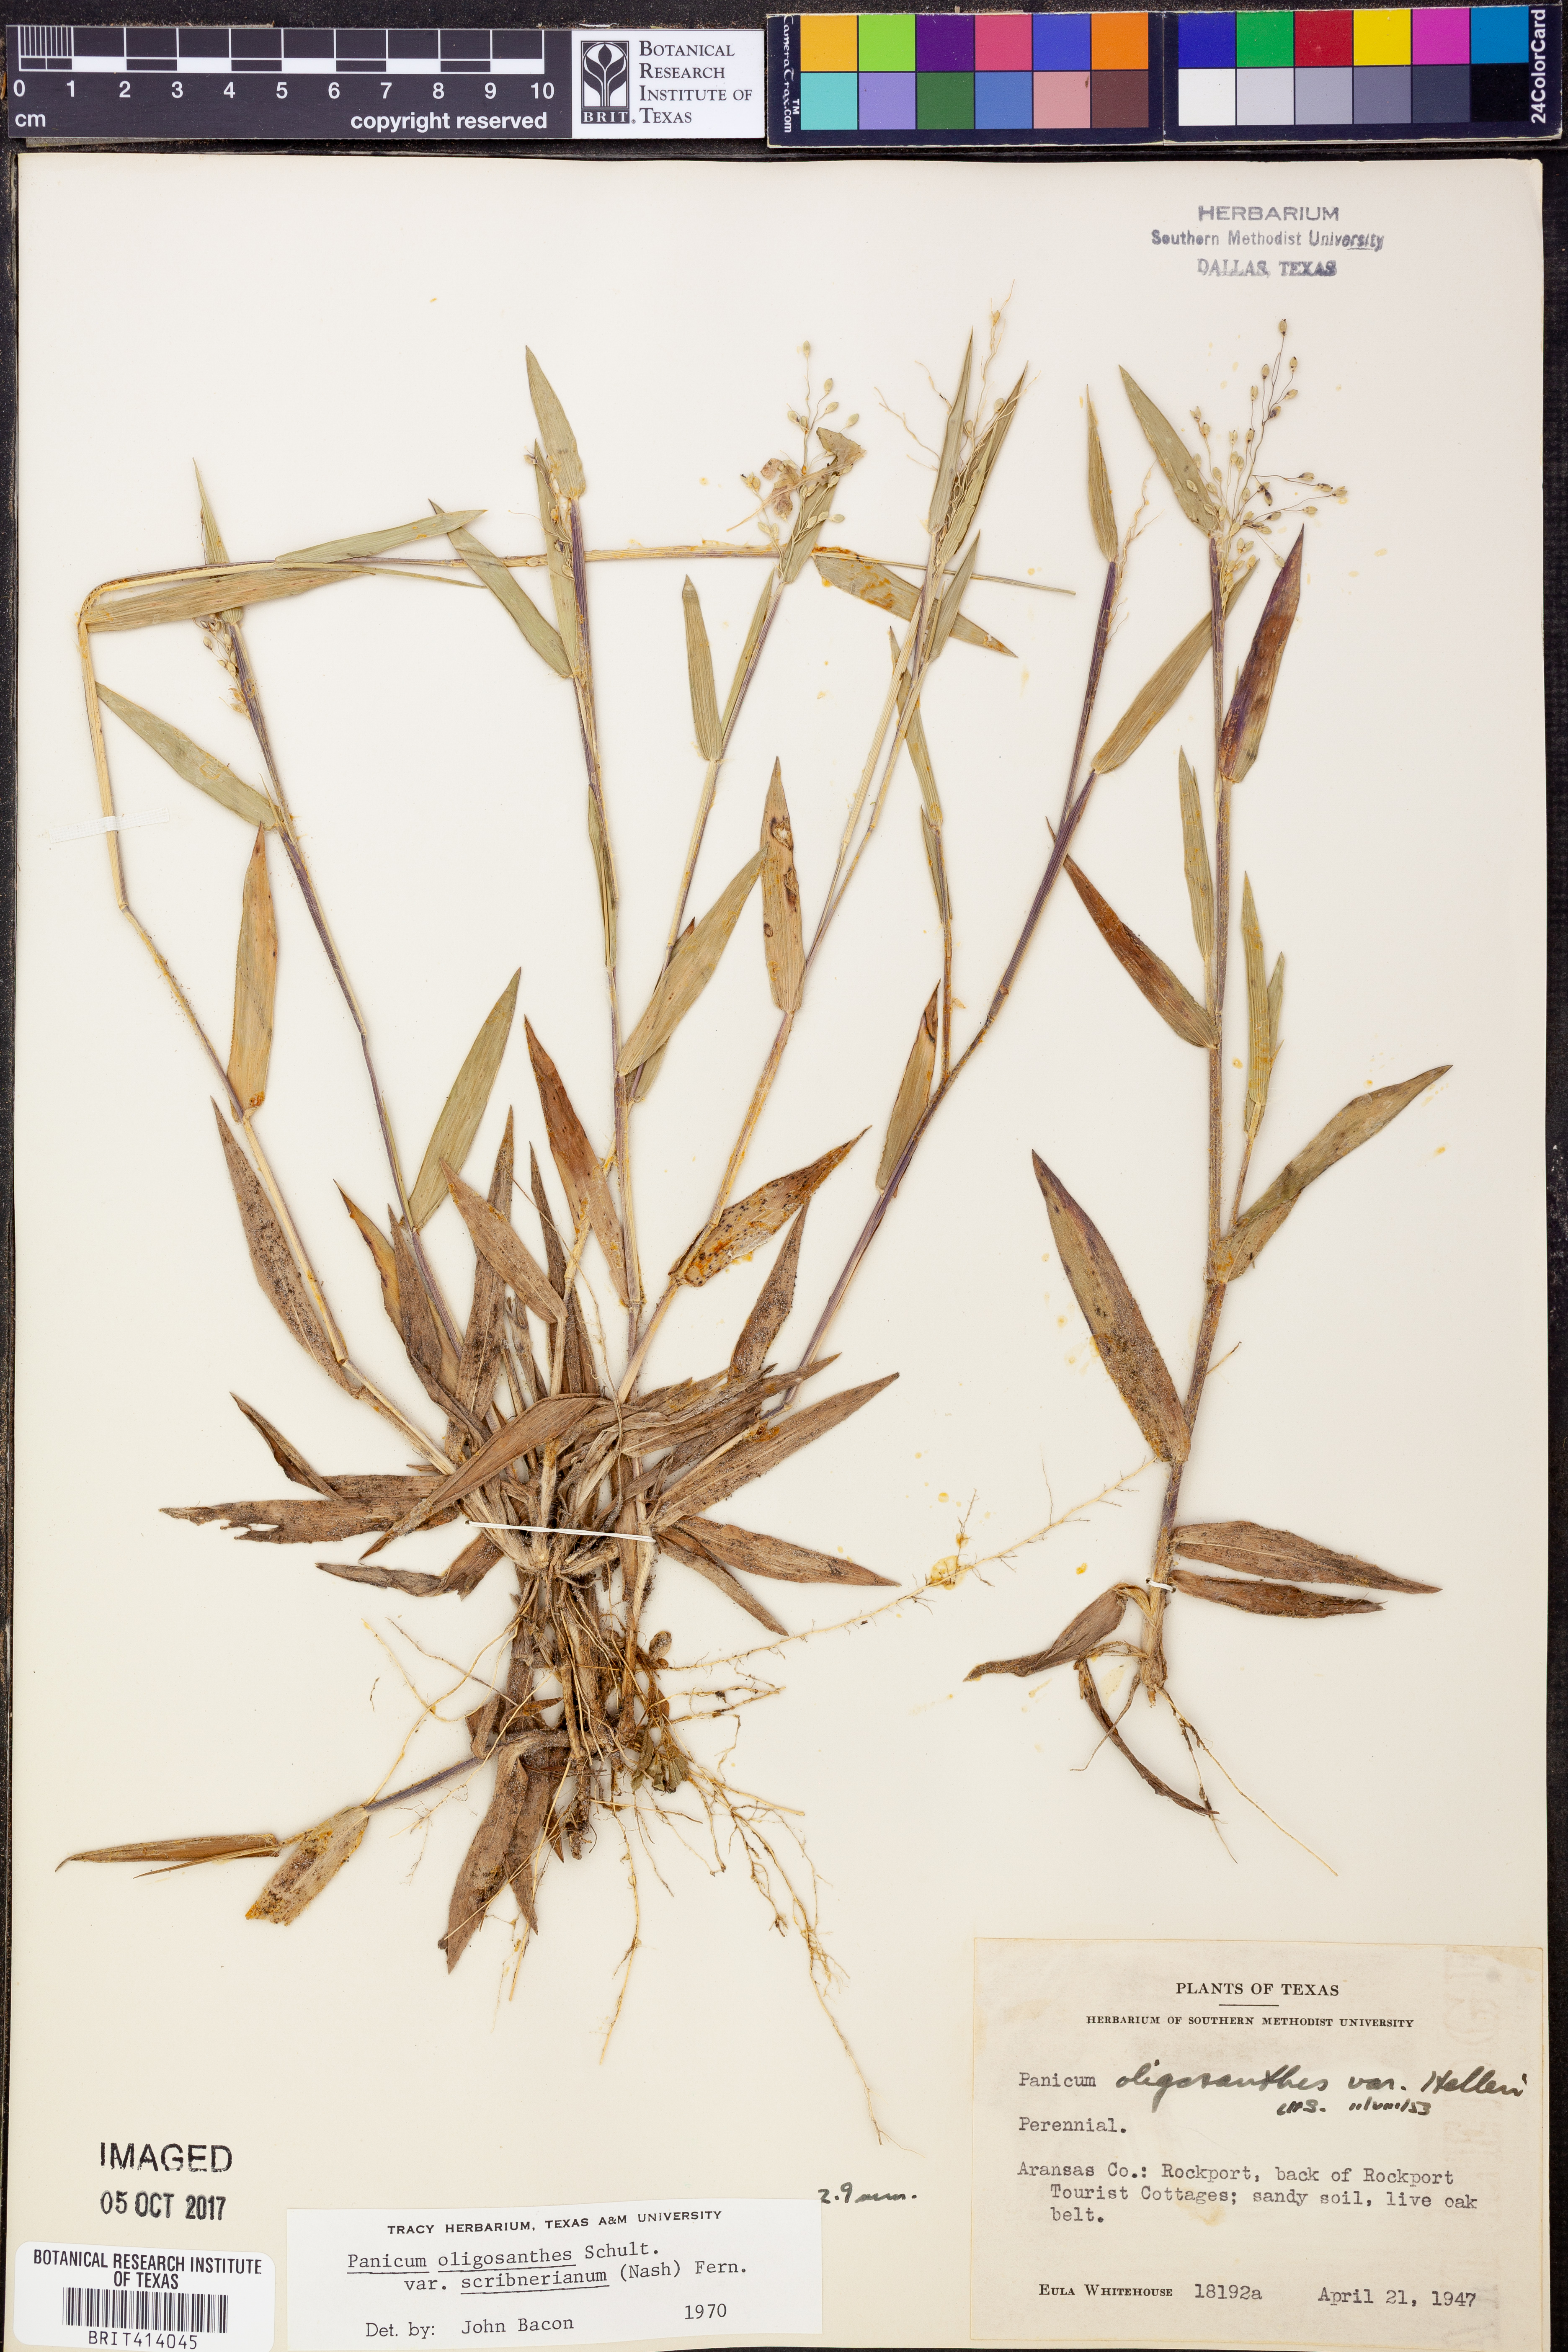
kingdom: Plantae
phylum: Tracheophyta
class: Liliopsida
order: Poales
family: Poaceae
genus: Dichanthelium
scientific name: Dichanthelium scribnerianum
